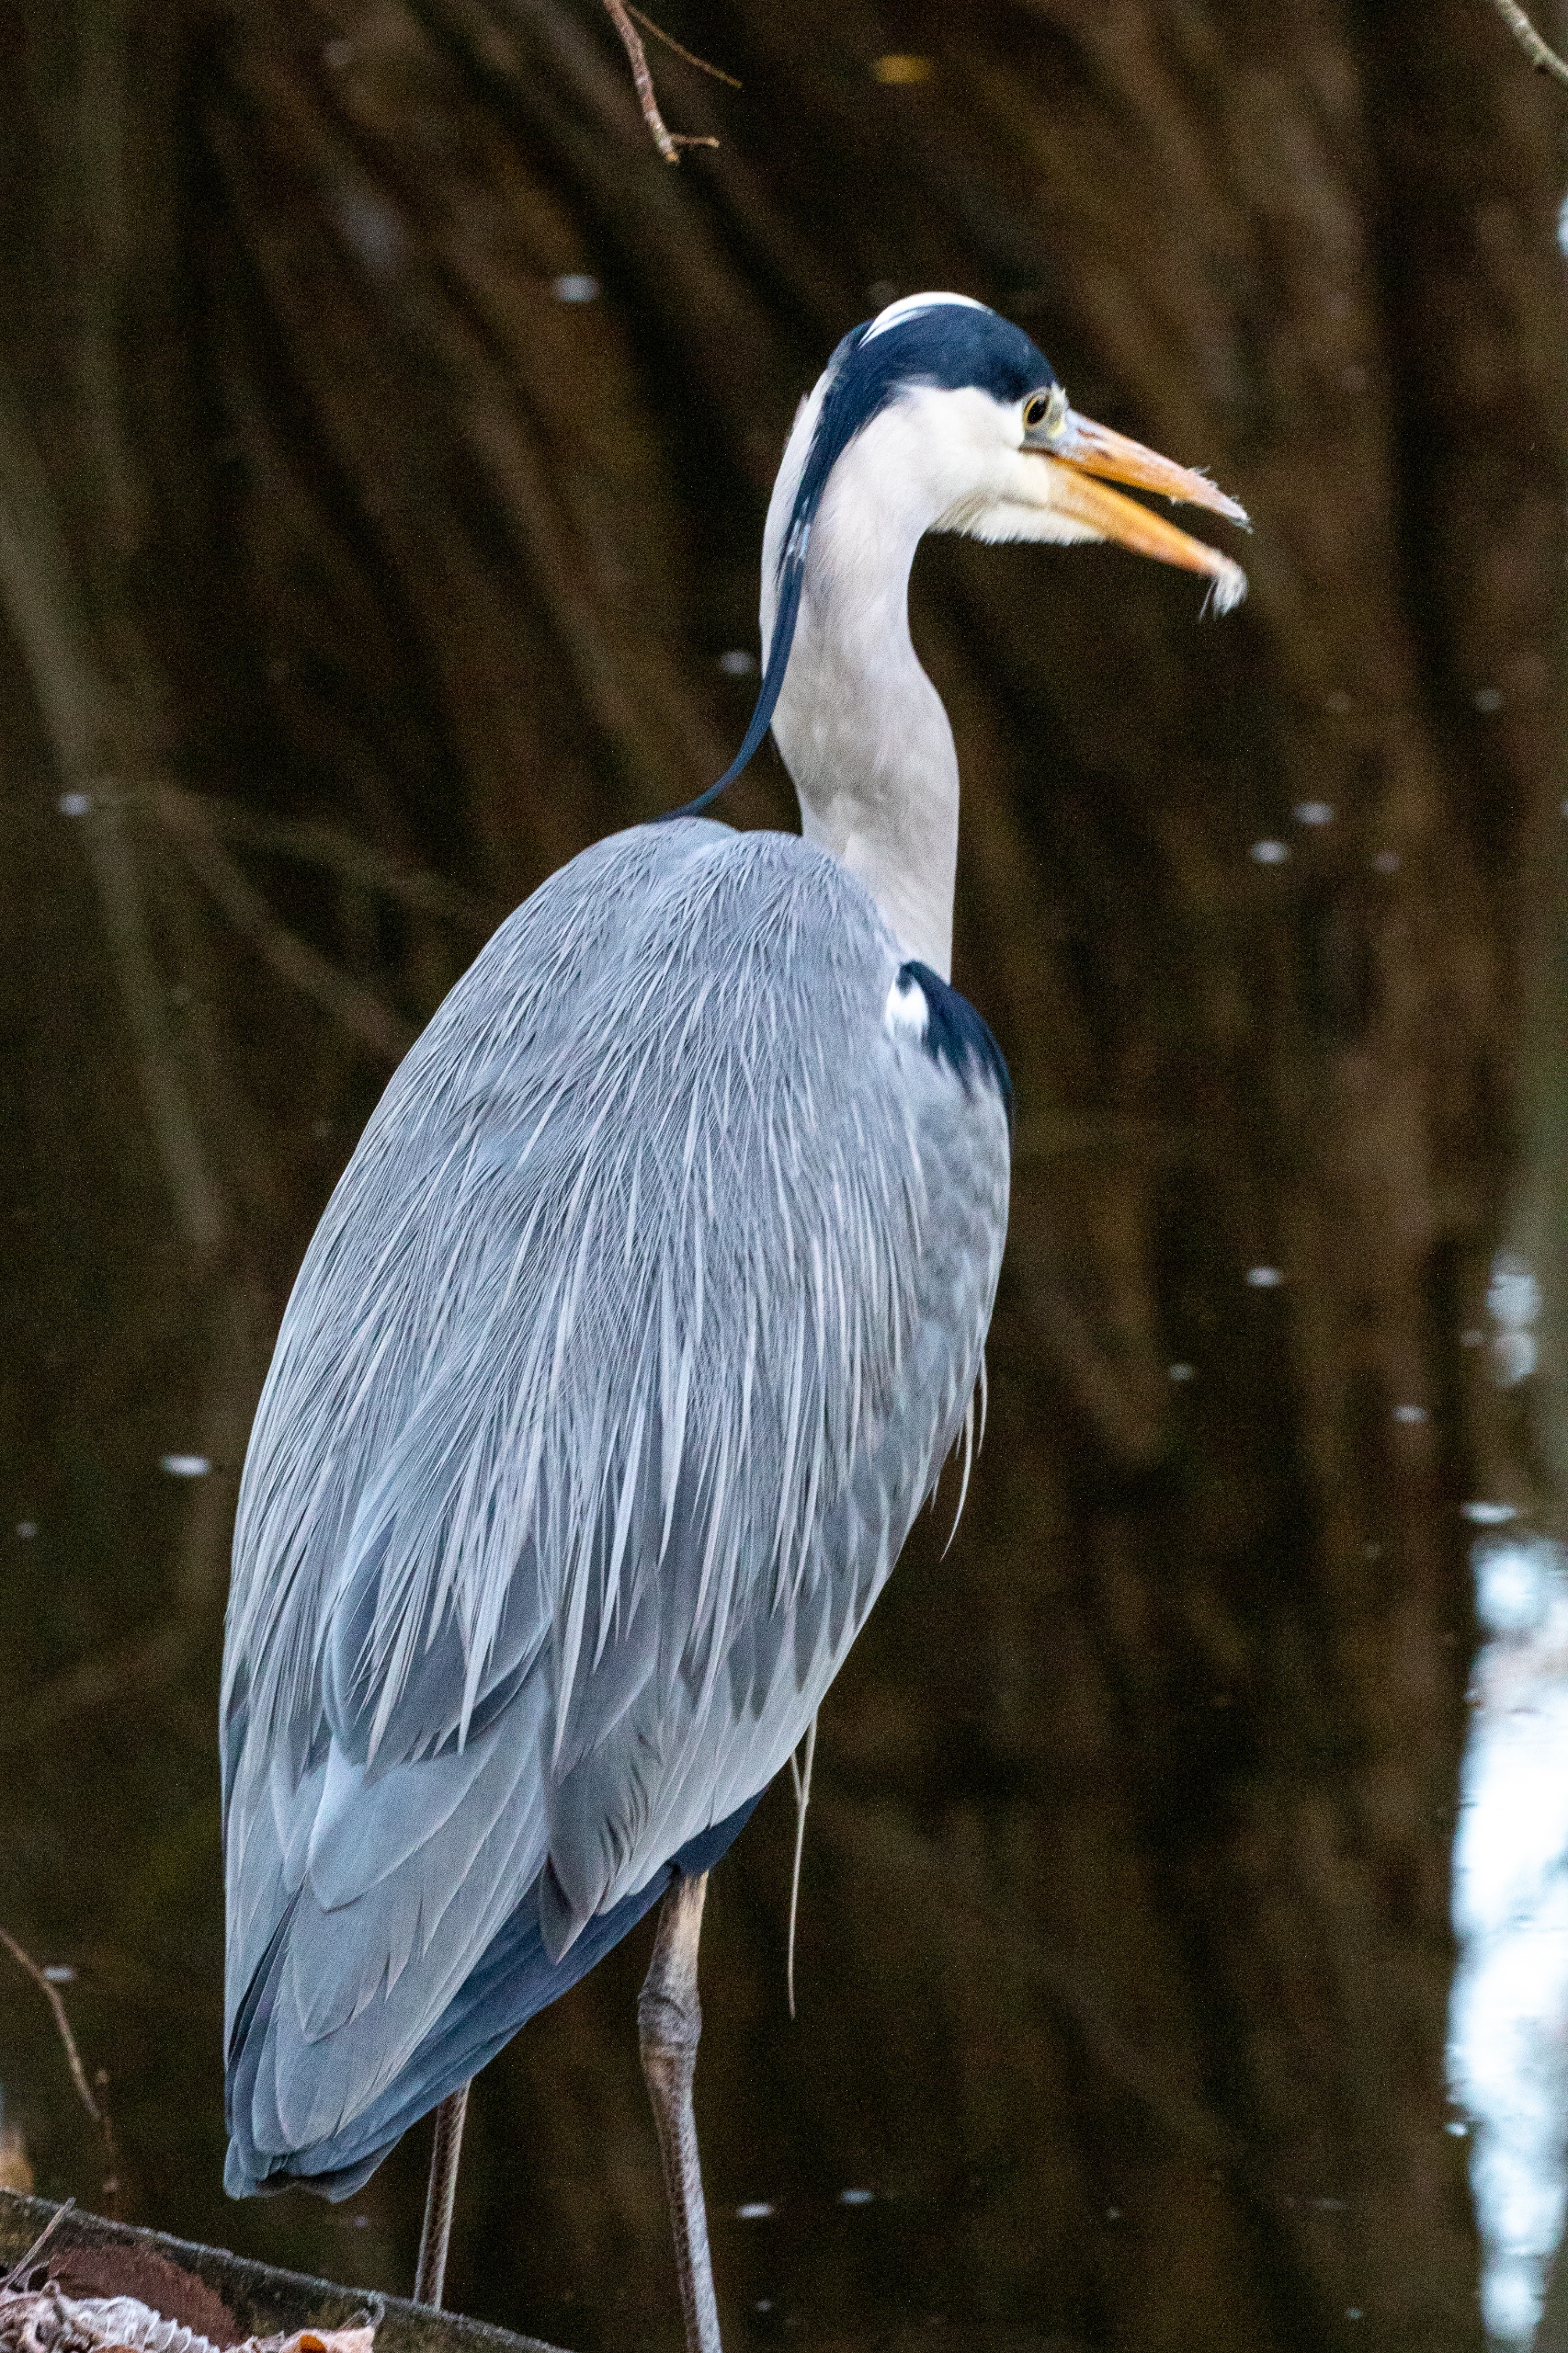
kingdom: Animalia
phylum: Chordata
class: Aves
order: Pelecaniformes
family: Ardeidae
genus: Ardea
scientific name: Ardea cinerea
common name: Fiskehejre
